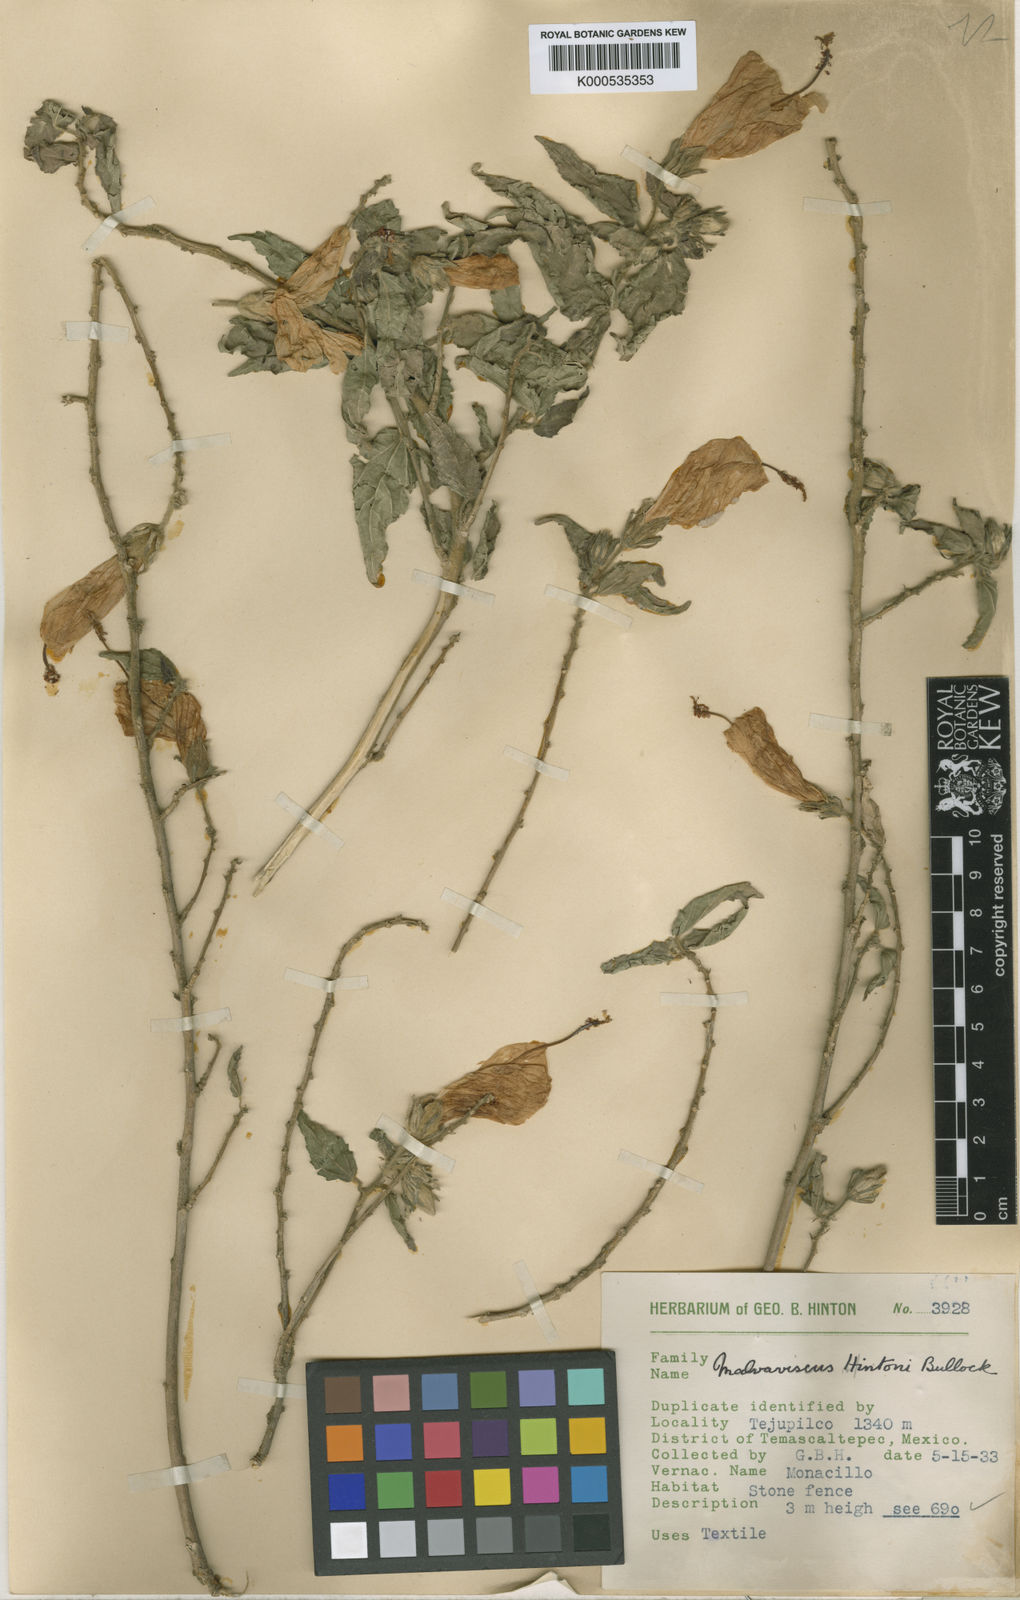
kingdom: Plantae
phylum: Tracheophyta
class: Magnoliopsida
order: Malvales
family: Malvaceae
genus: Malvaviscus
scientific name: Malvaviscus urticifolius
